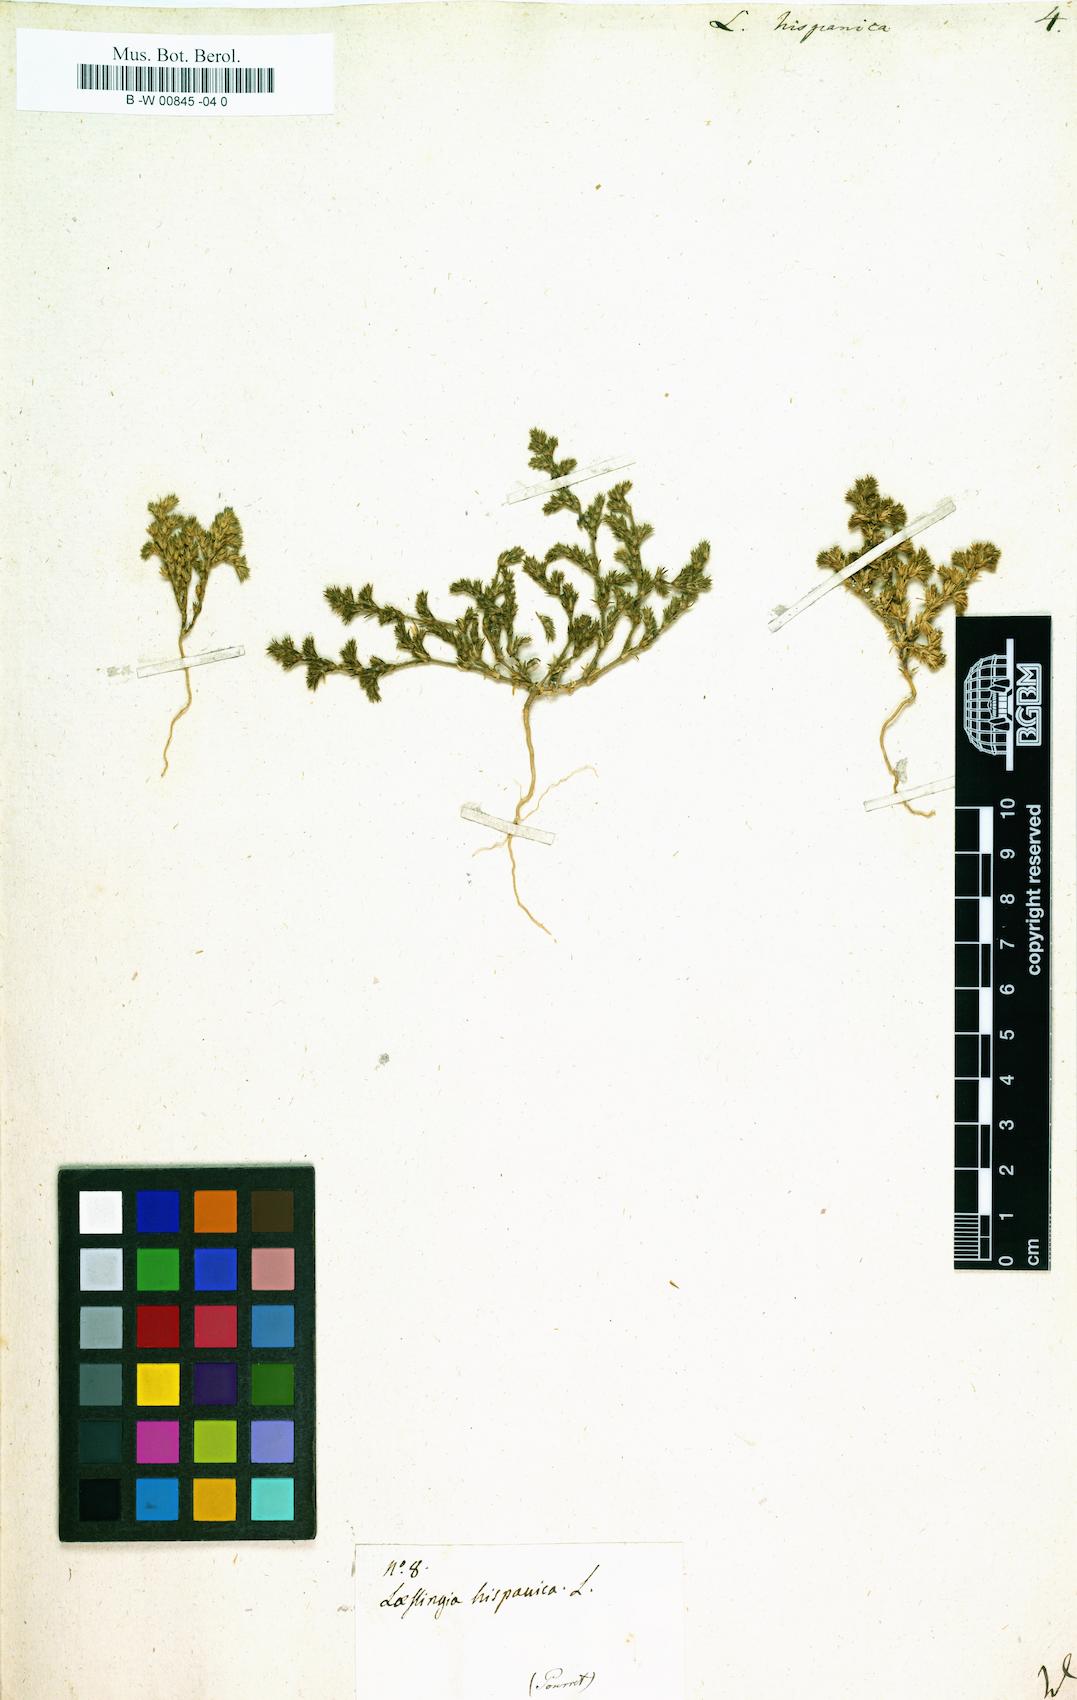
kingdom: Plantae
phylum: Tracheophyta
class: Magnoliopsida
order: Caryophyllales
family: Caryophyllaceae
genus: Loeflingia
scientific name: Loeflingia hispanica
